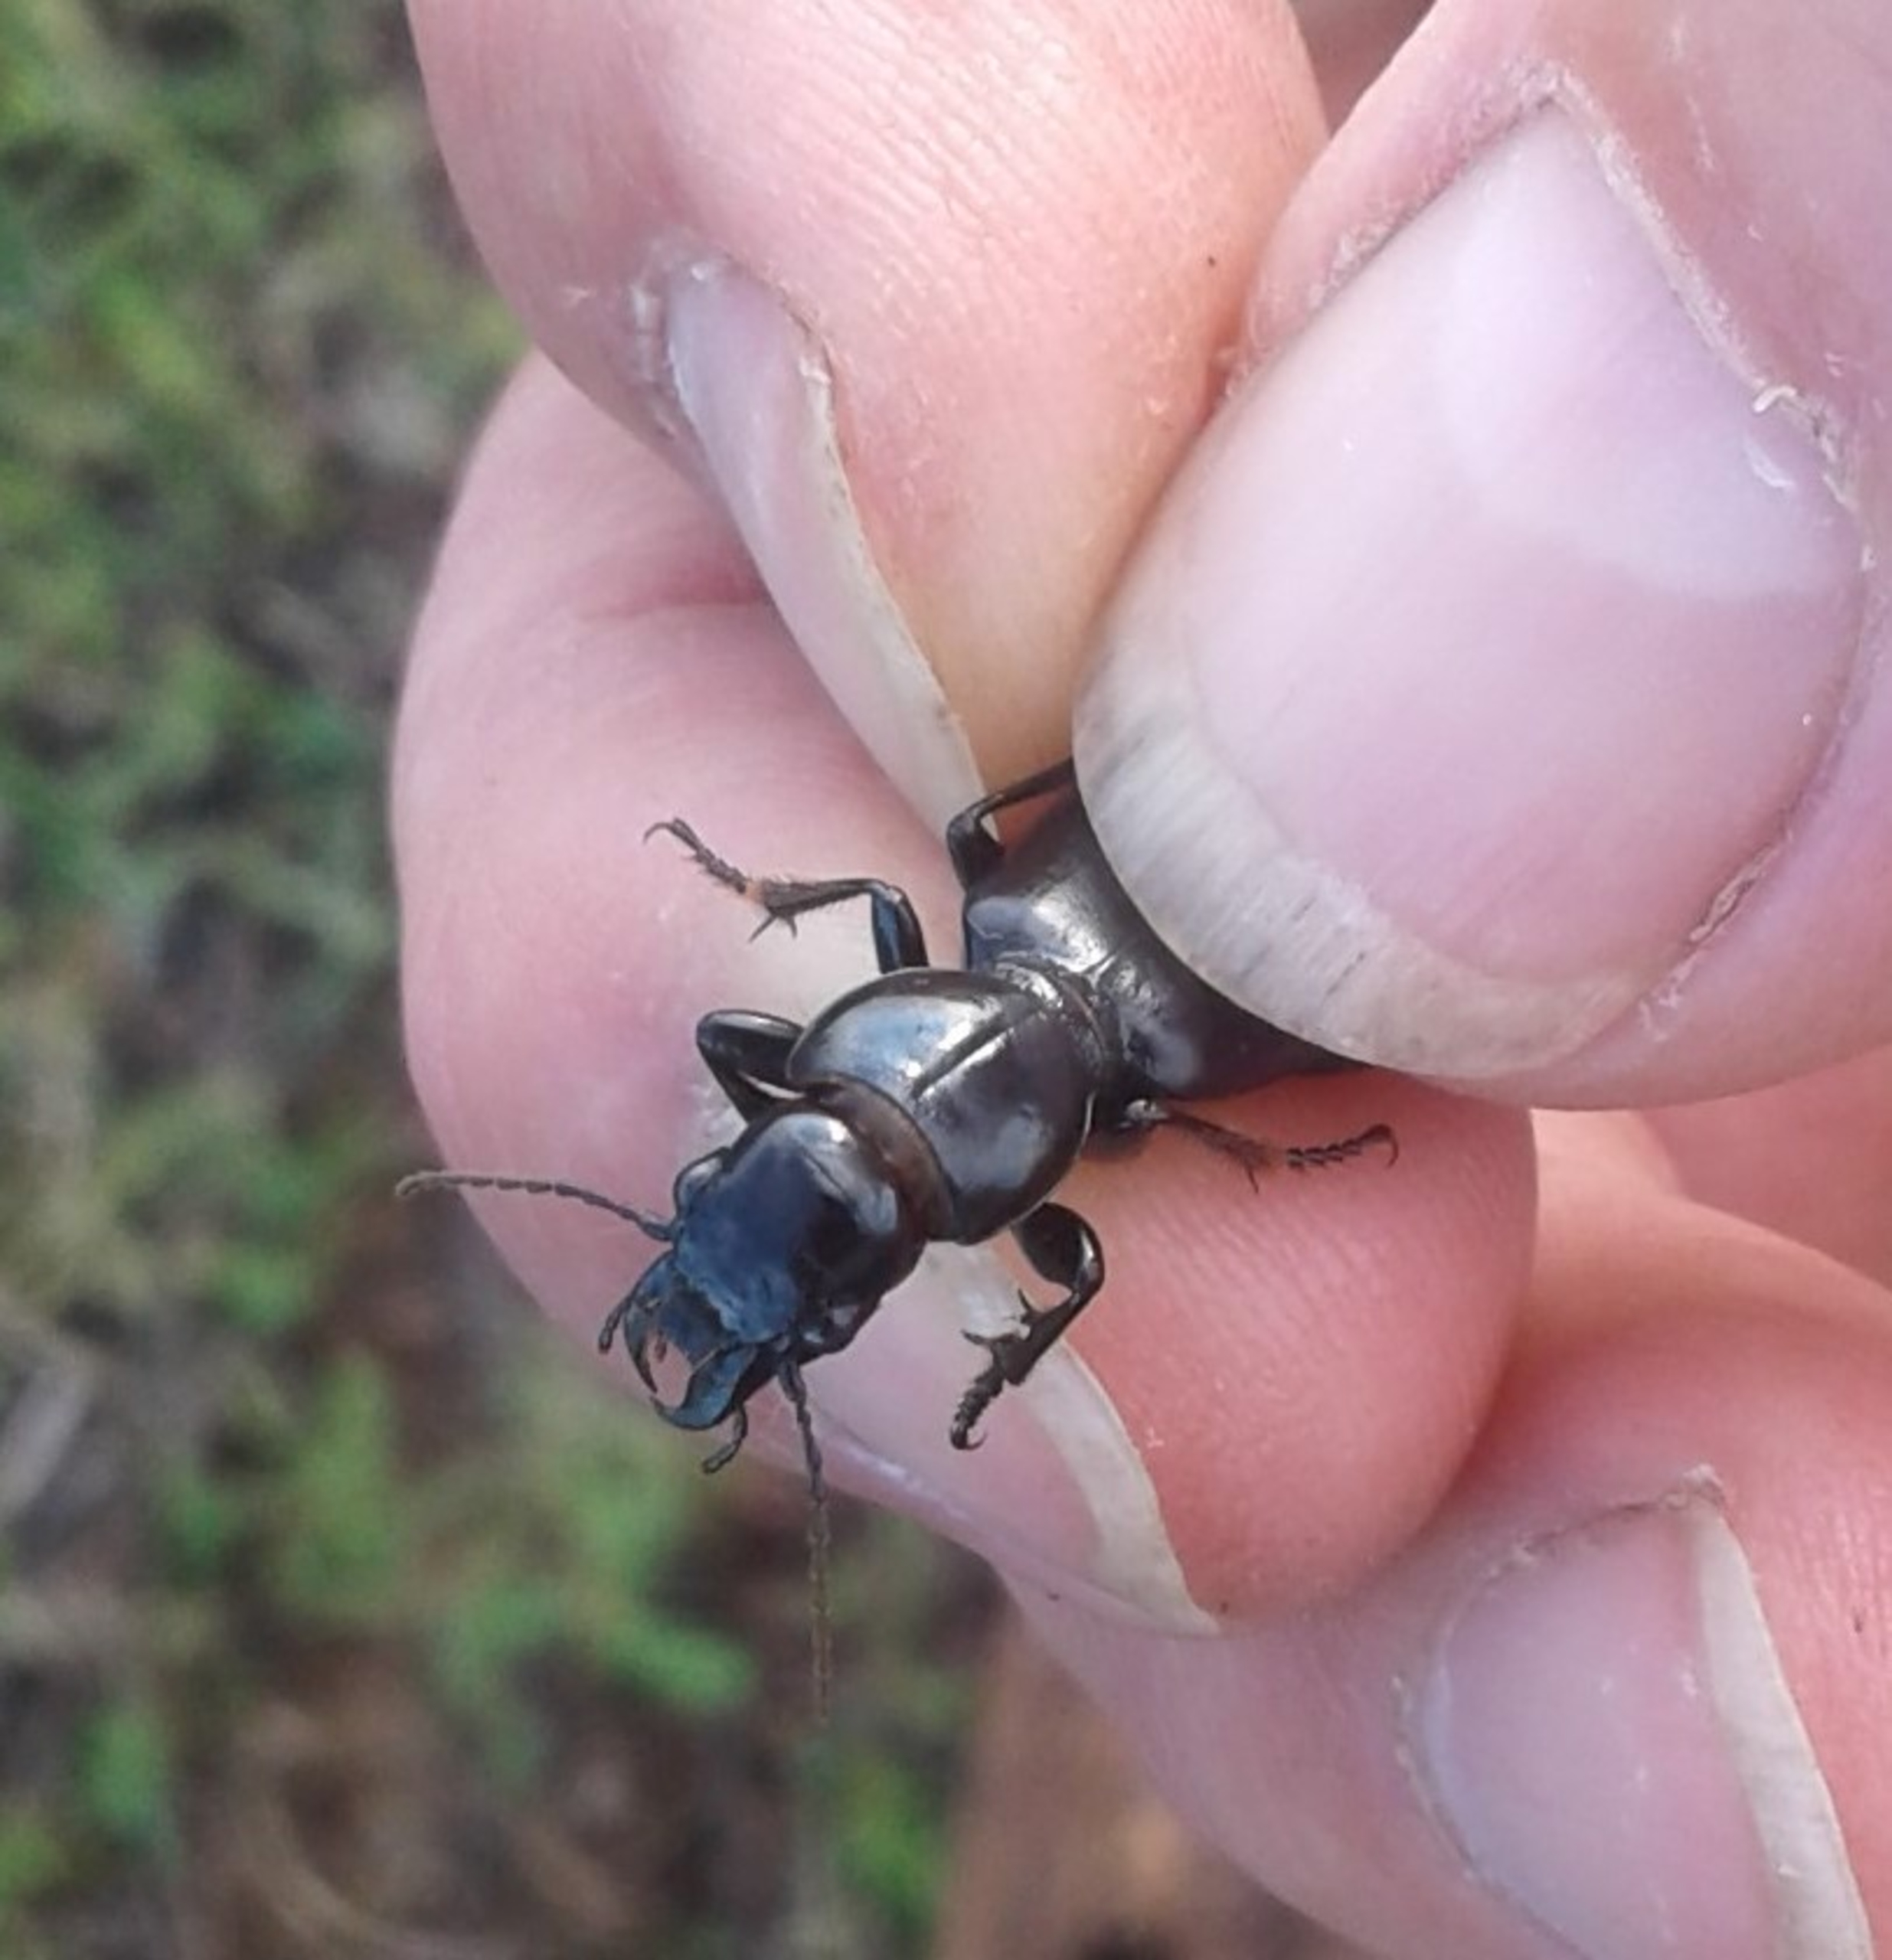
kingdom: Animalia
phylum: Arthropoda
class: Insecta
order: Coleoptera
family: Carabidae
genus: Broscus
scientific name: Broscus cephalotes
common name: Sandgraver
